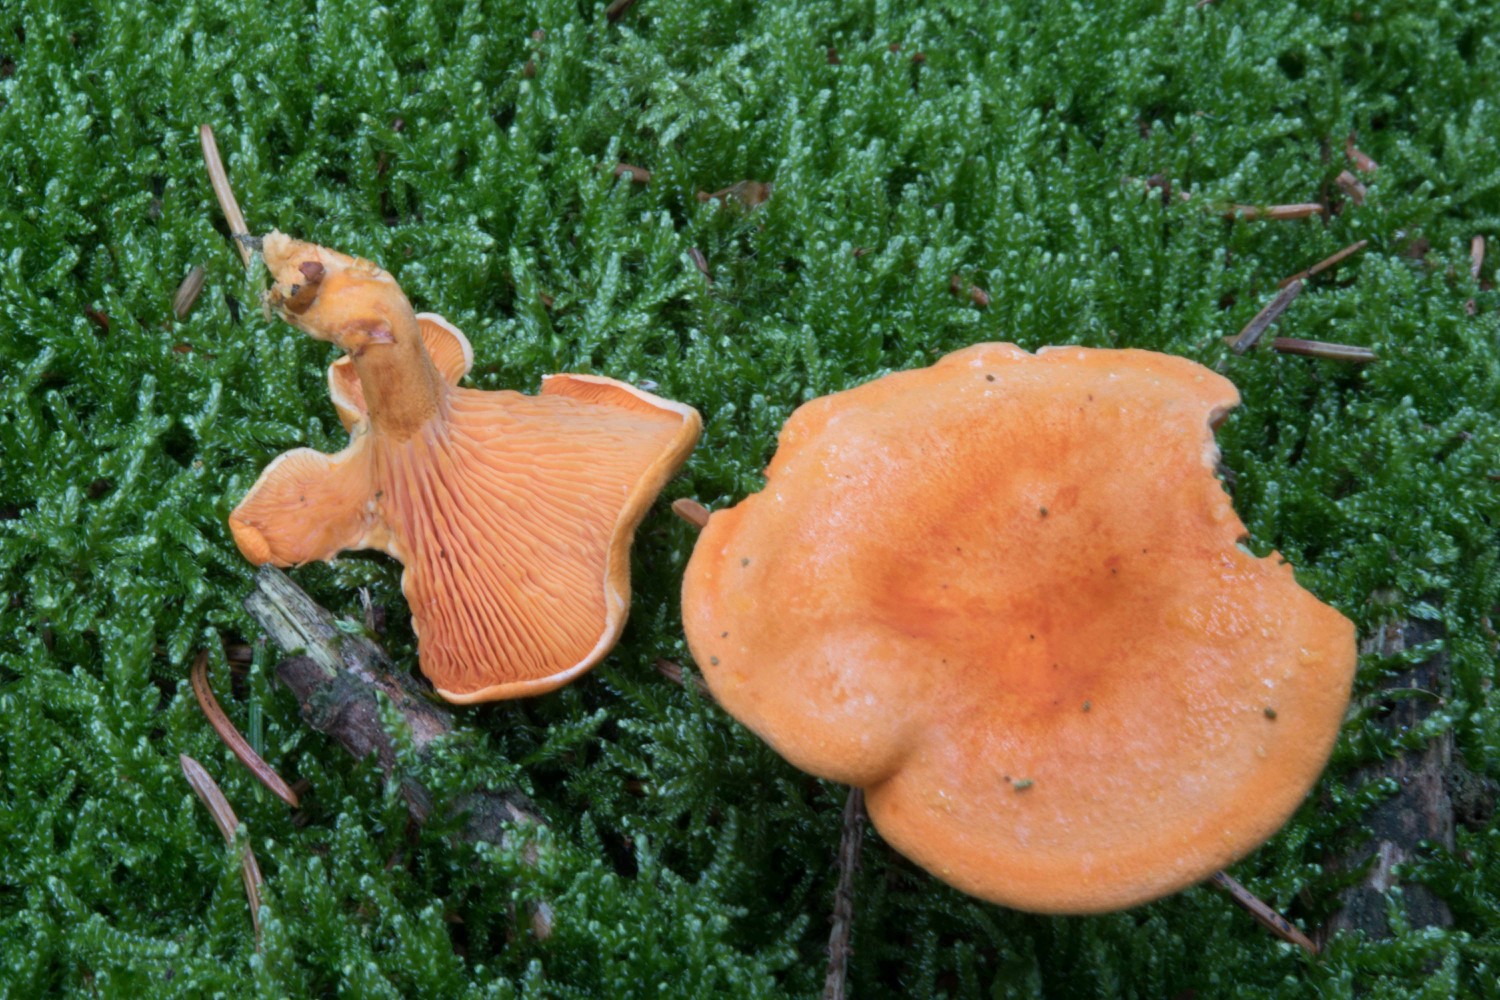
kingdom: Fungi
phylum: Basidiomycota
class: Agaricomycetes
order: Boletales
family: Hygrophoropsidaceae
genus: Hygrophoropsis
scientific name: Hygrophoropsis aurantiaca
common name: almindelig orangekantarel
